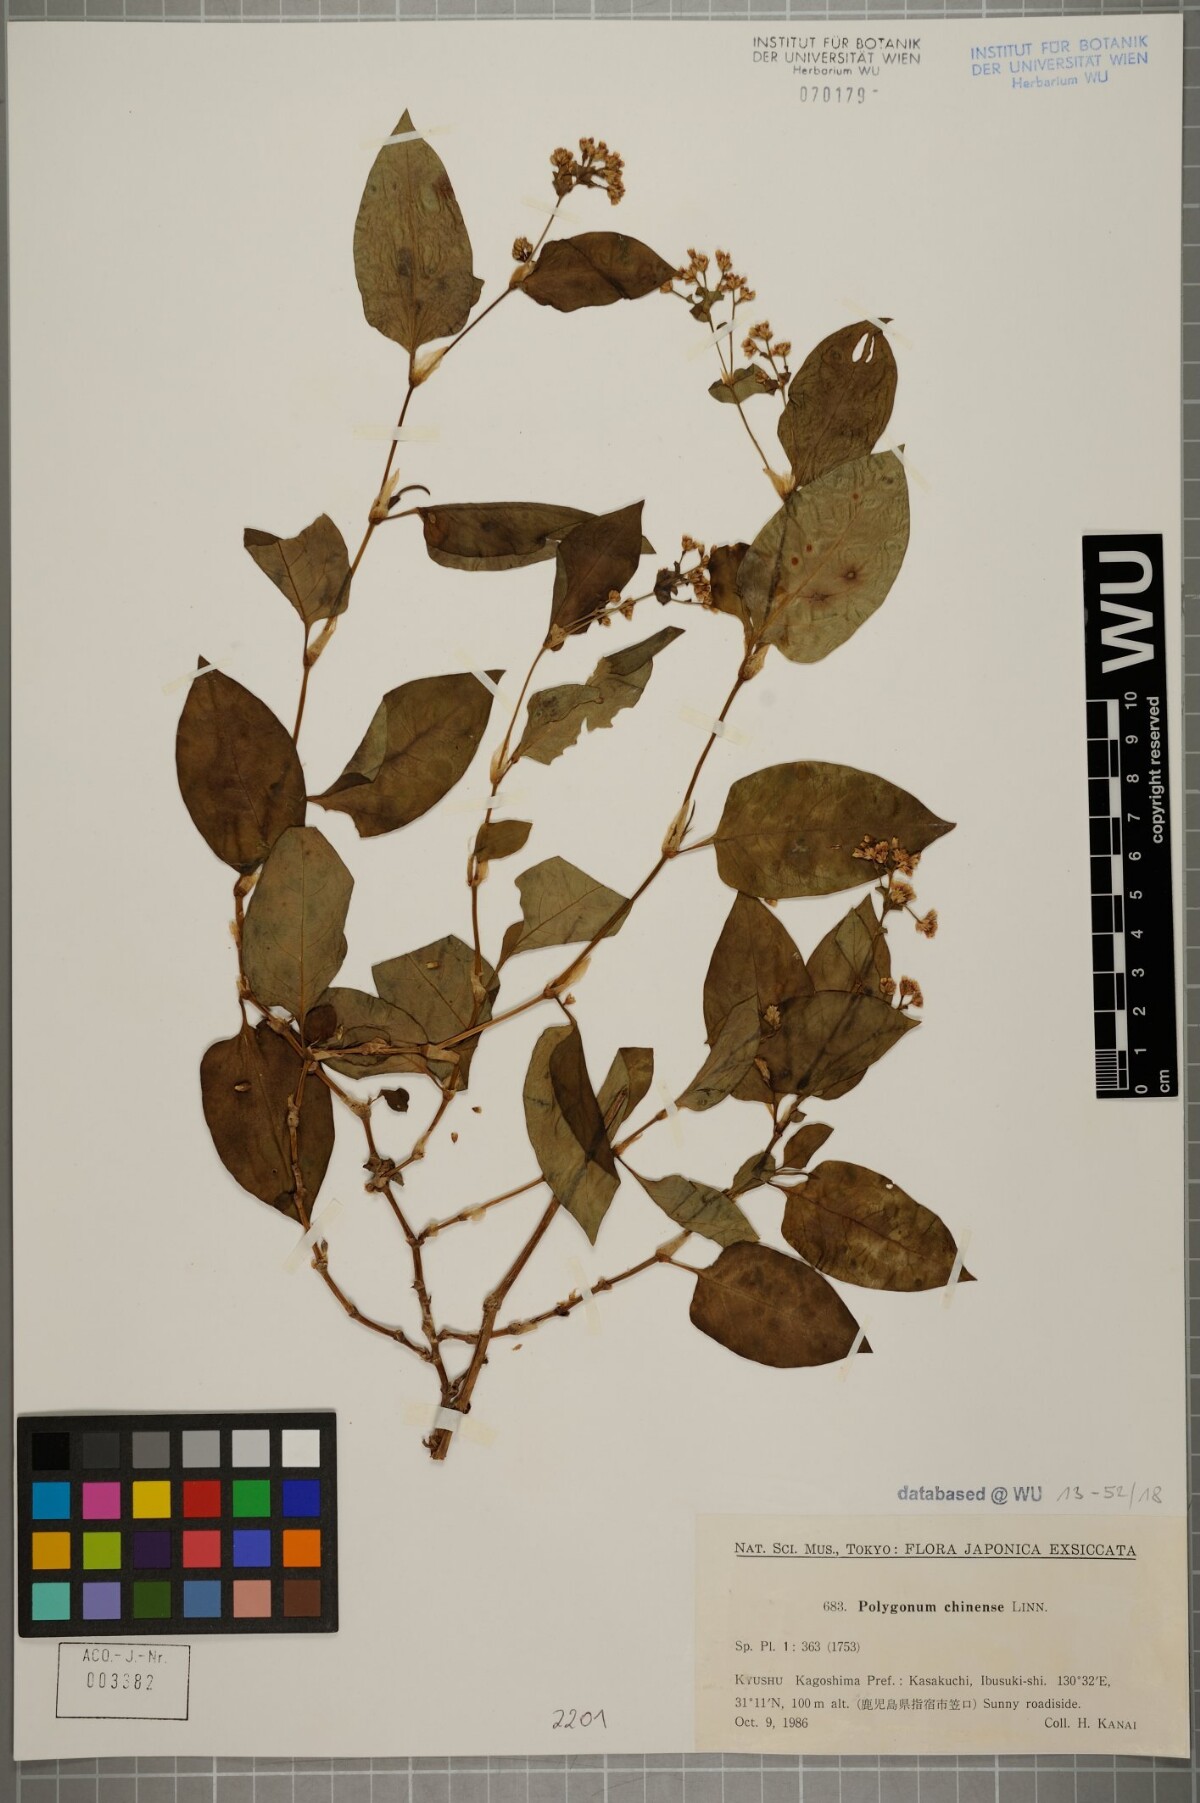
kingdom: Plantae
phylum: Tracheophyta
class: Magnoliopsida
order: Caryophyllales
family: Polygonaceae
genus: Persicaria
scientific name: Persicaria chinensis
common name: Chinese knotweed
